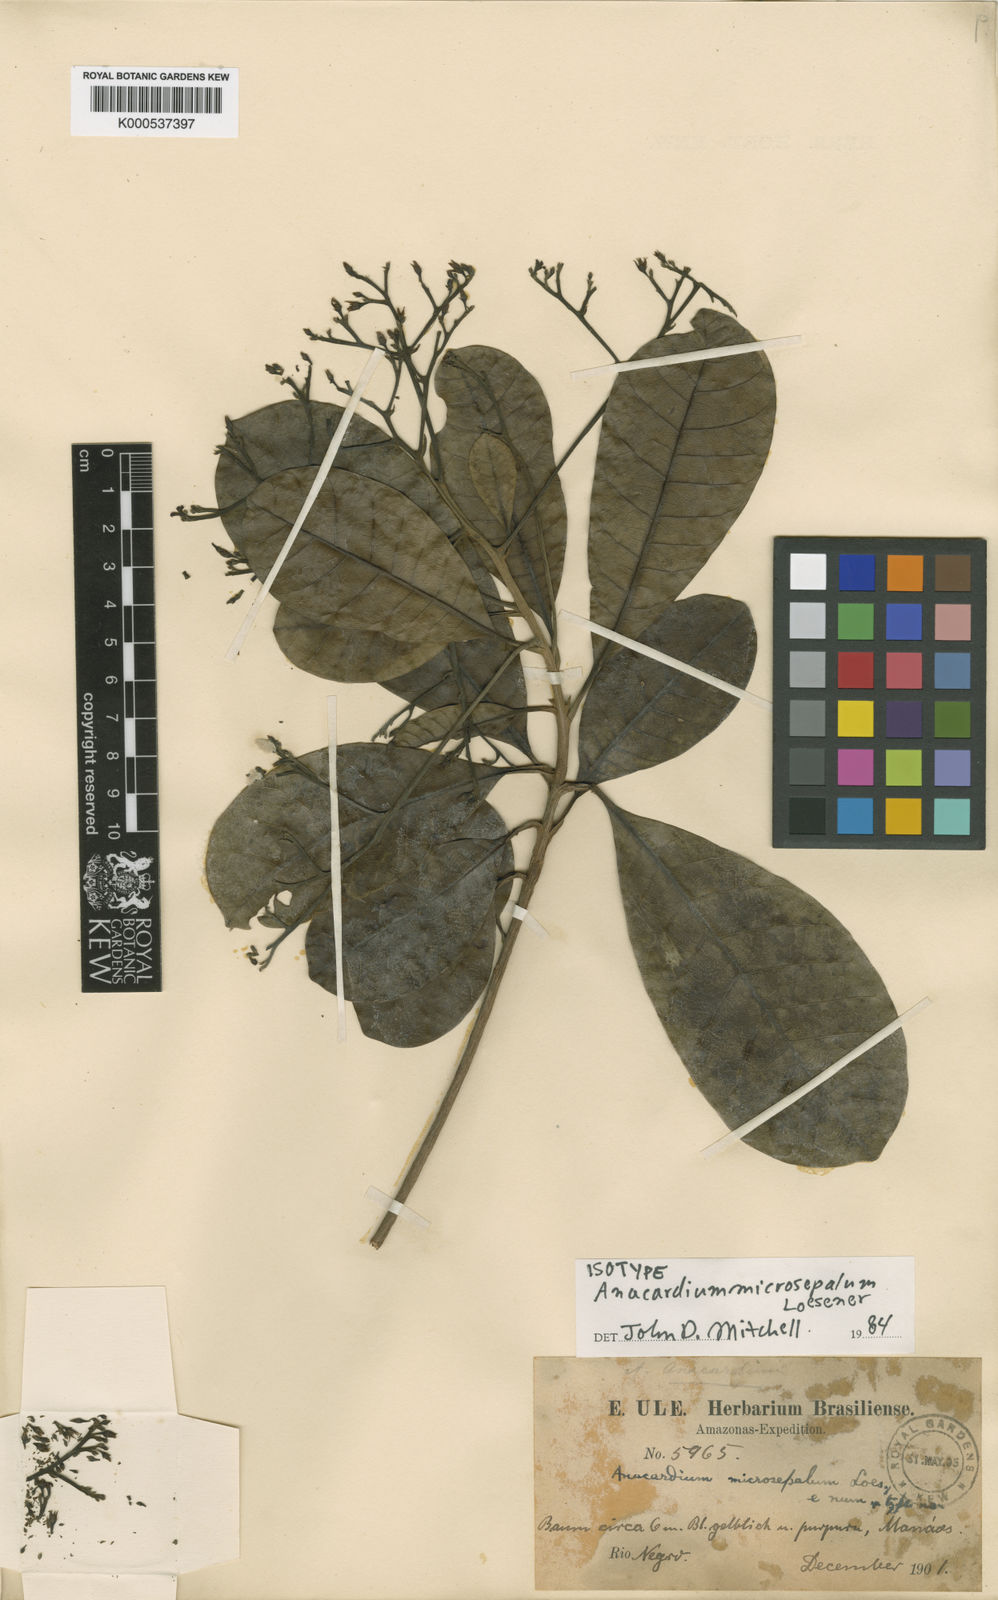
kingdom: Plantae
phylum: Tracheophyta
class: Magnoliopsida
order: Sapindales
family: Anacardiaceae
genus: Anacardium
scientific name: Anacardium microsepalum
